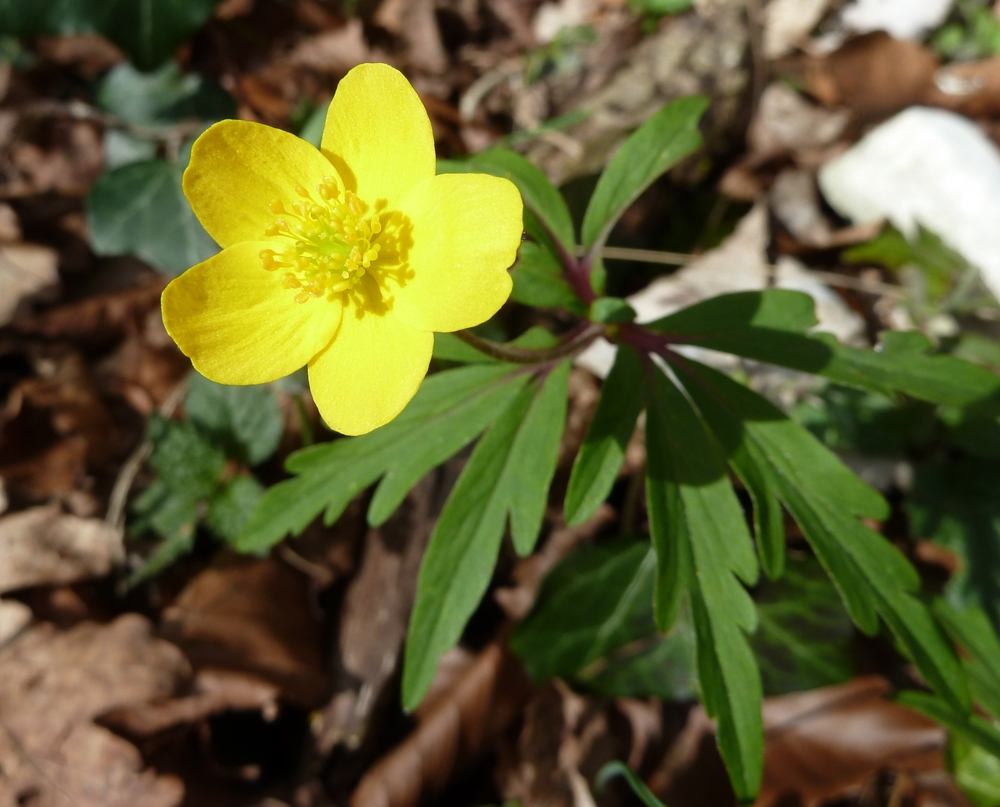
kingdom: Plantae
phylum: Tracheophyta
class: Magnoliopsida
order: Ranunculales
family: Ranunculaceae
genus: Anemone
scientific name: Anemone ranunculoides
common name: Yellow anemone
